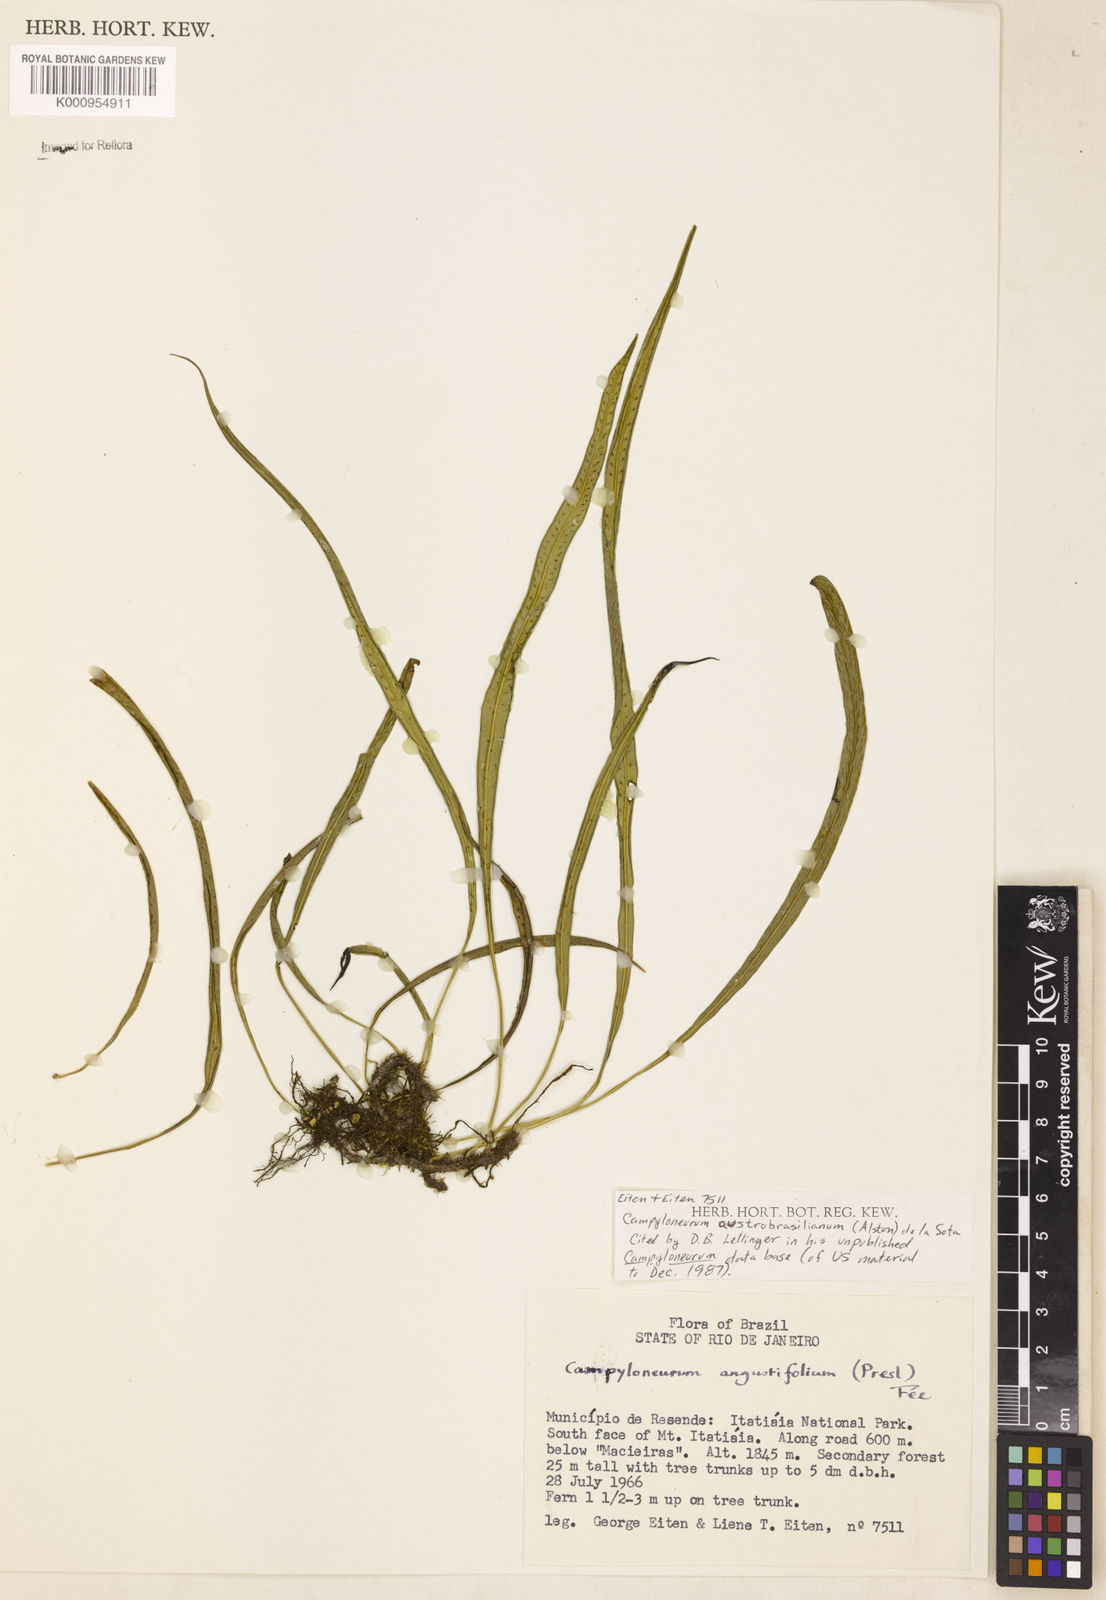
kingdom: Plantae
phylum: Tracheophyta
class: Polypodiopsida
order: Polypodiales
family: Polypodiaceae
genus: Campyloneurum
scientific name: Campyloneurum
